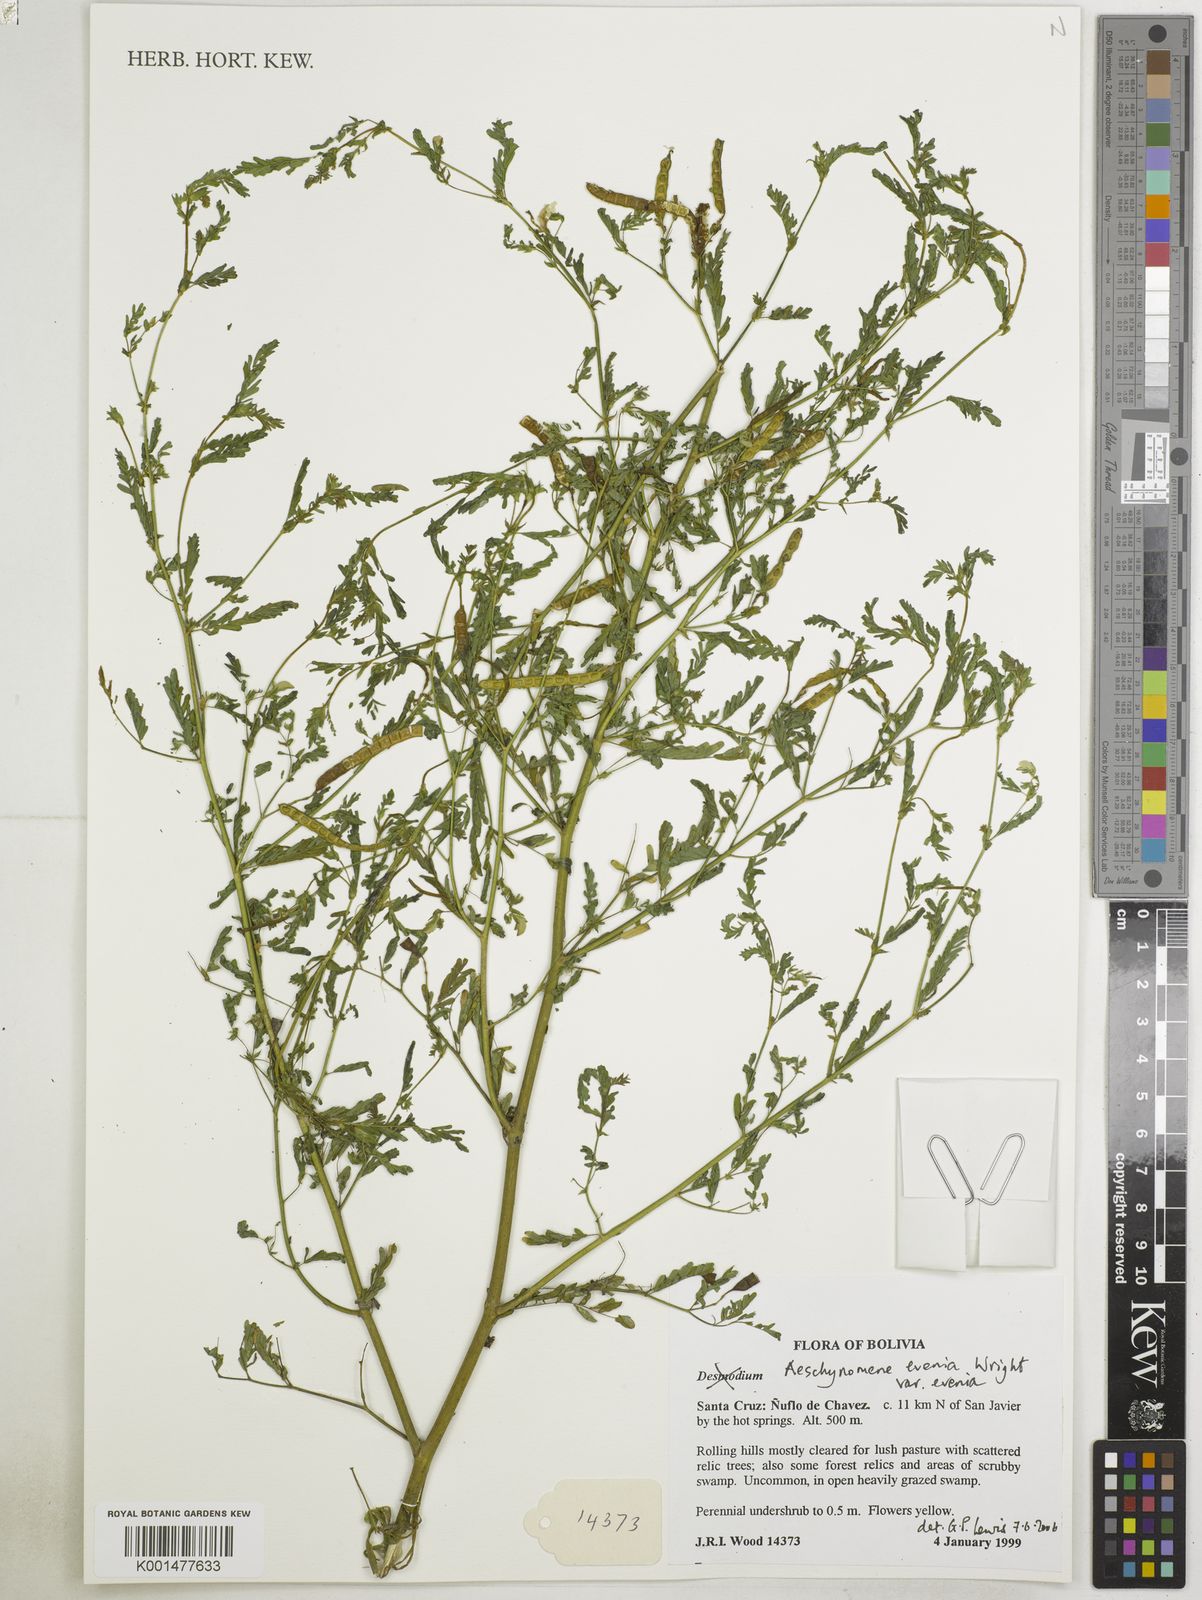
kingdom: Plantae
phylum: Tracheophyta
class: Magnoliopsida
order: Fabales
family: Fabaceae
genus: Aeschynomene
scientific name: Aeschynomene evenia
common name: Shrubby jointvetch
